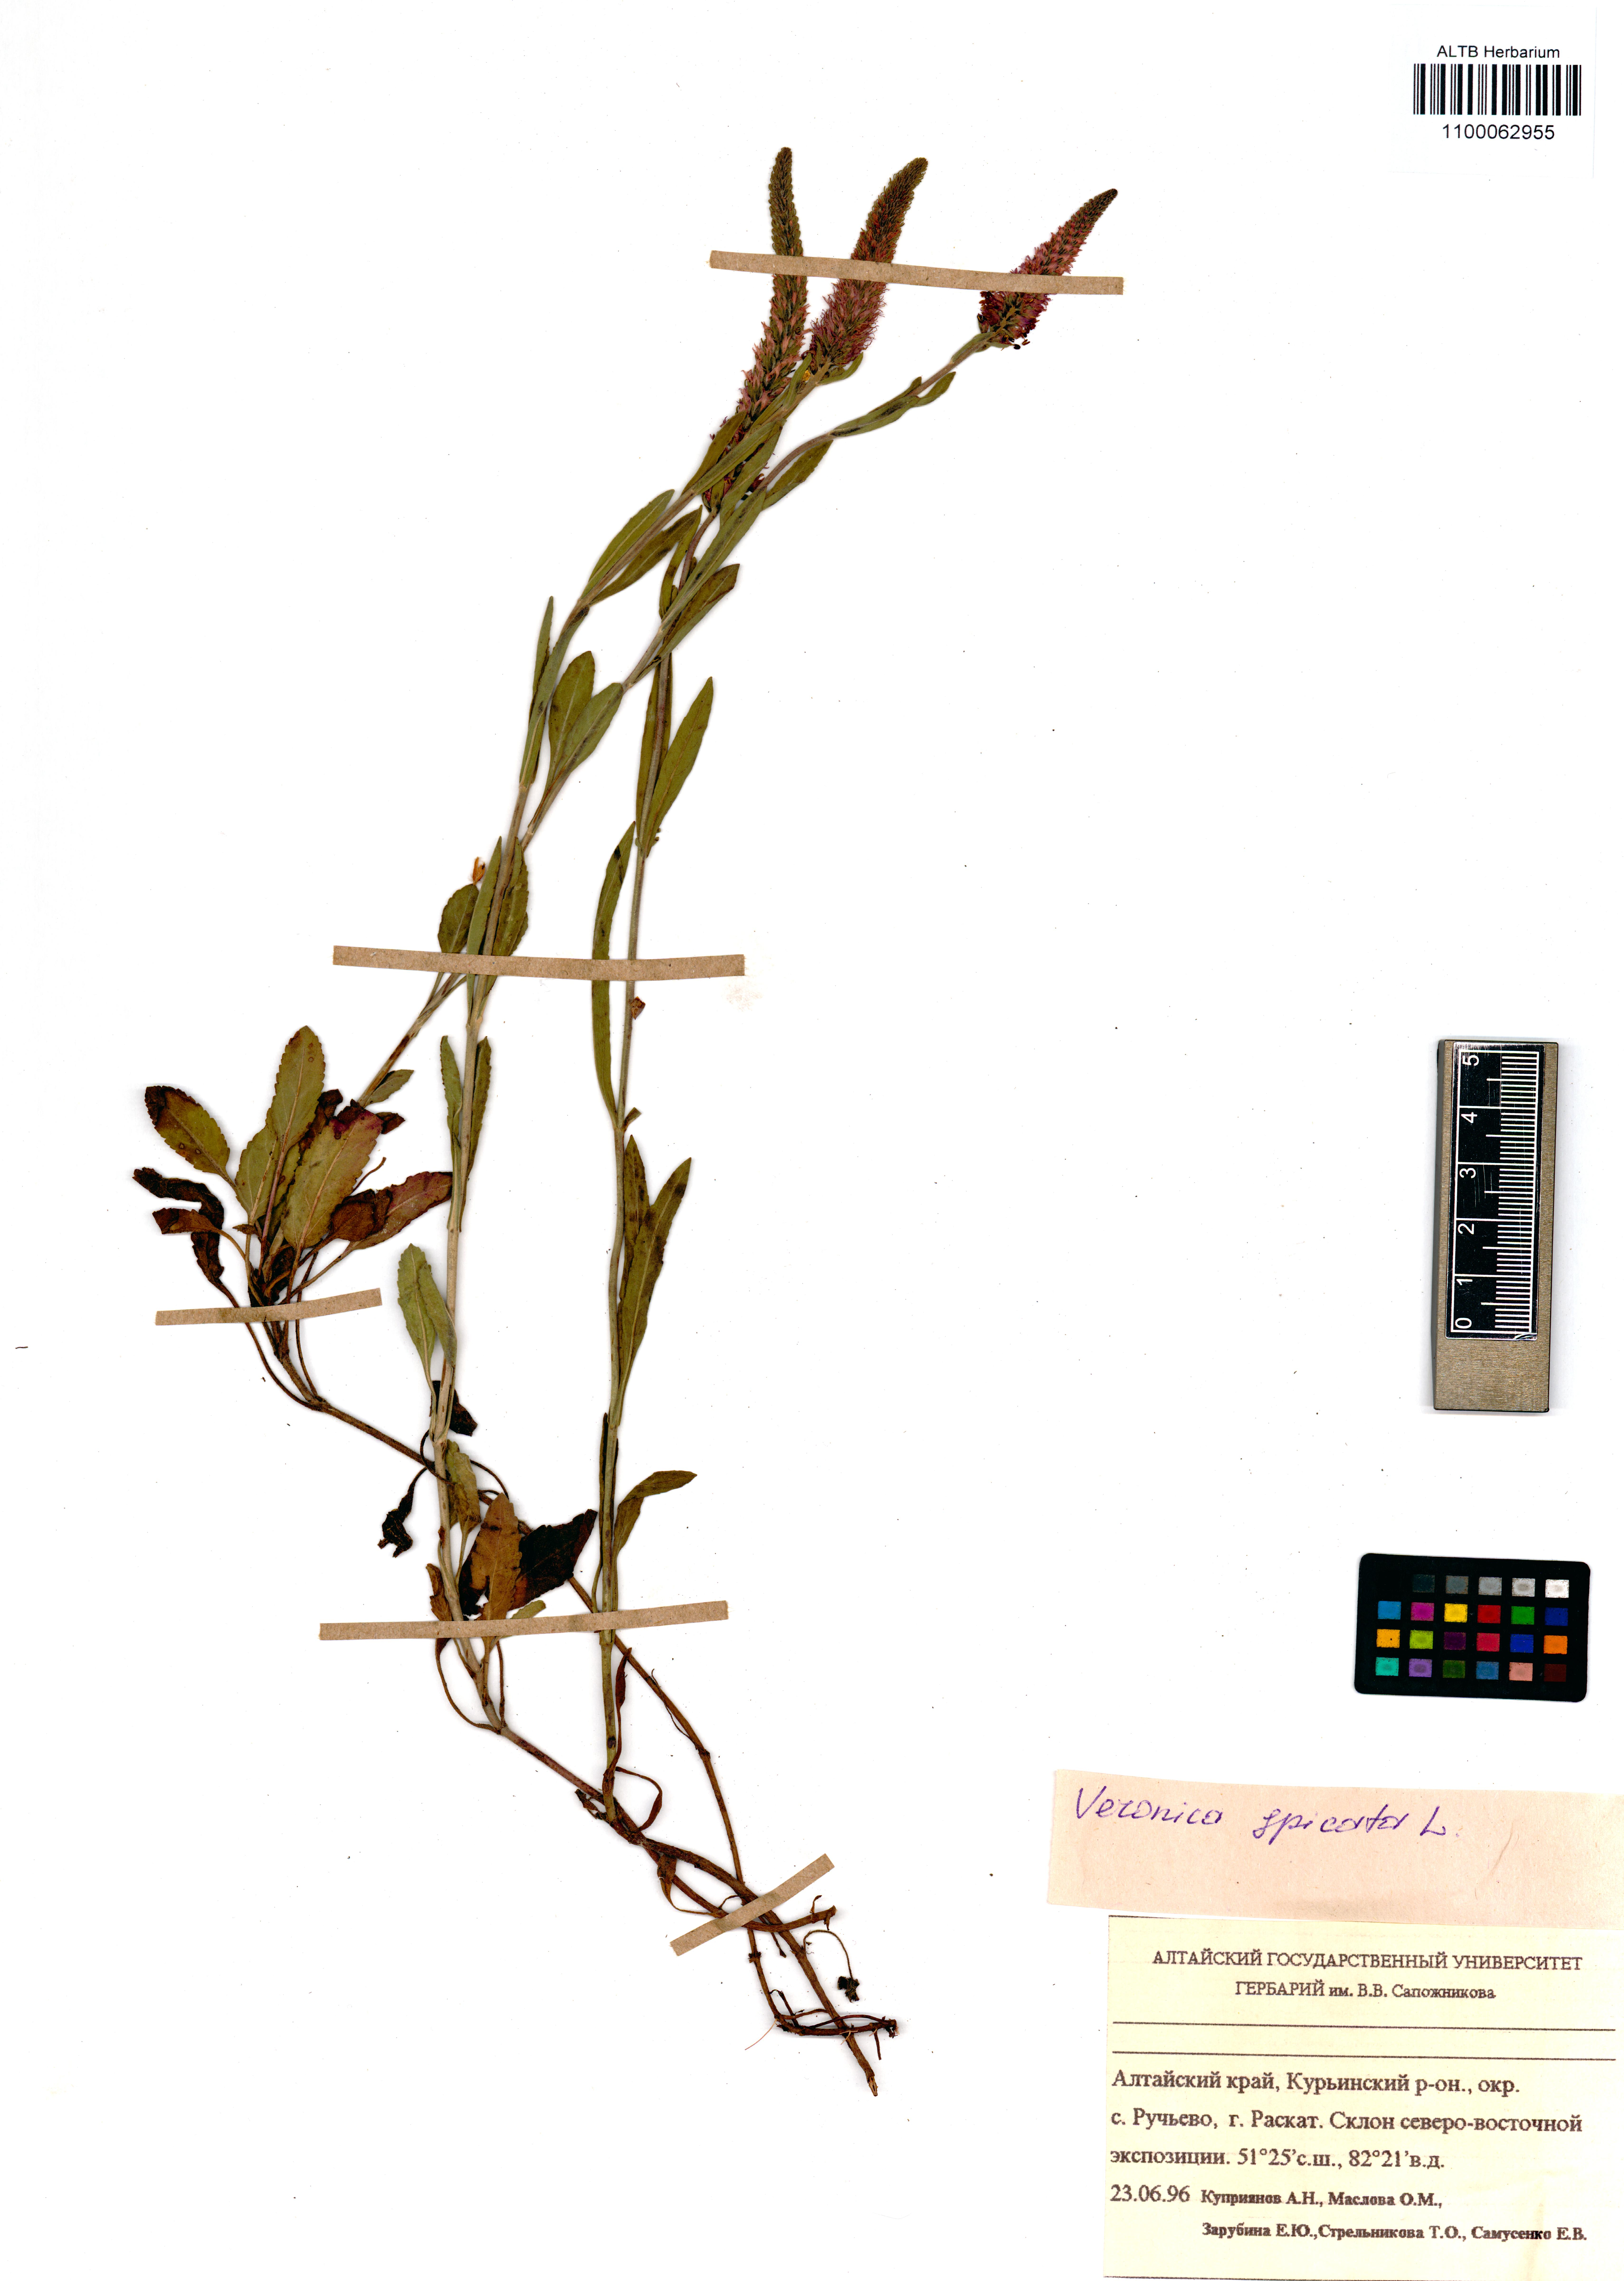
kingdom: Plantae
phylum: Tracheophyta
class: Magnoliopsida
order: Lamiales
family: Plantaginaceae
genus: Veronica
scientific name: Veronica spicata
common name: Spiked speedwell
